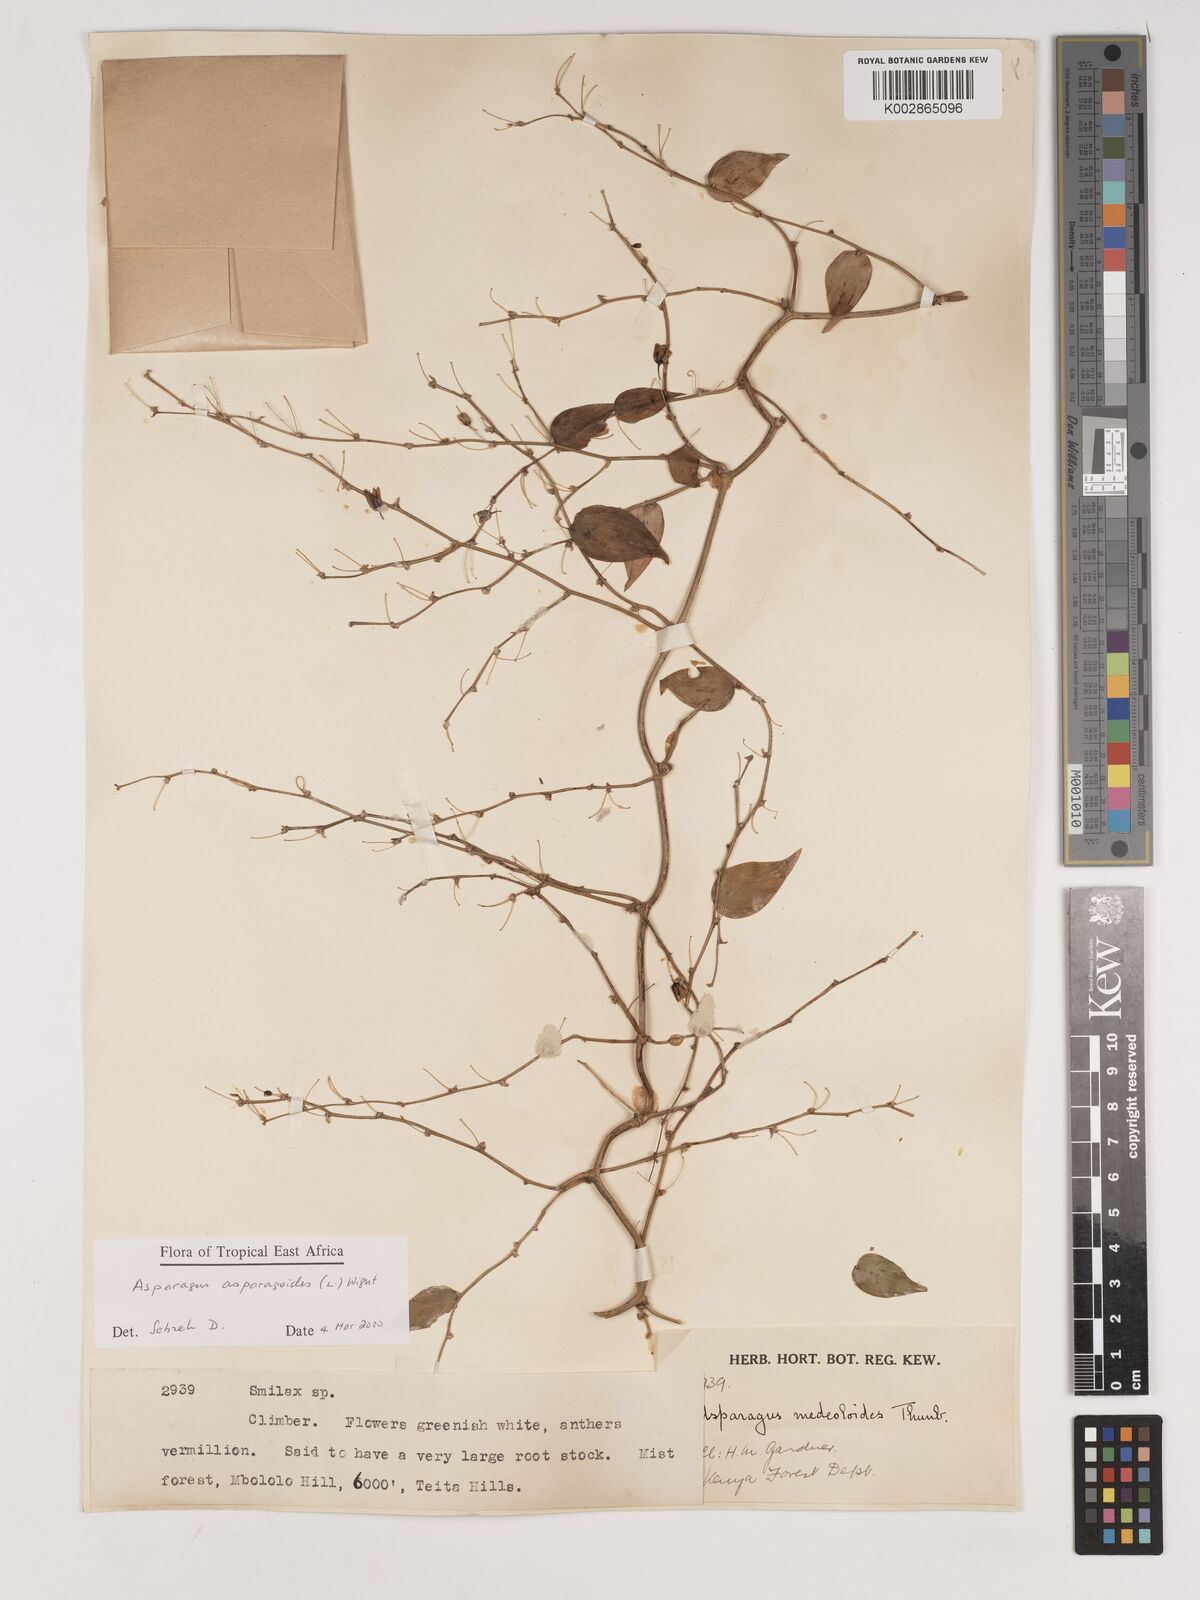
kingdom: Plantae
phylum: Tracheophyta
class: Liliopsida
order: Asparagales
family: Asparagaceae
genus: Asparagus
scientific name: Asparagus asparagoides
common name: African asparagus fern
